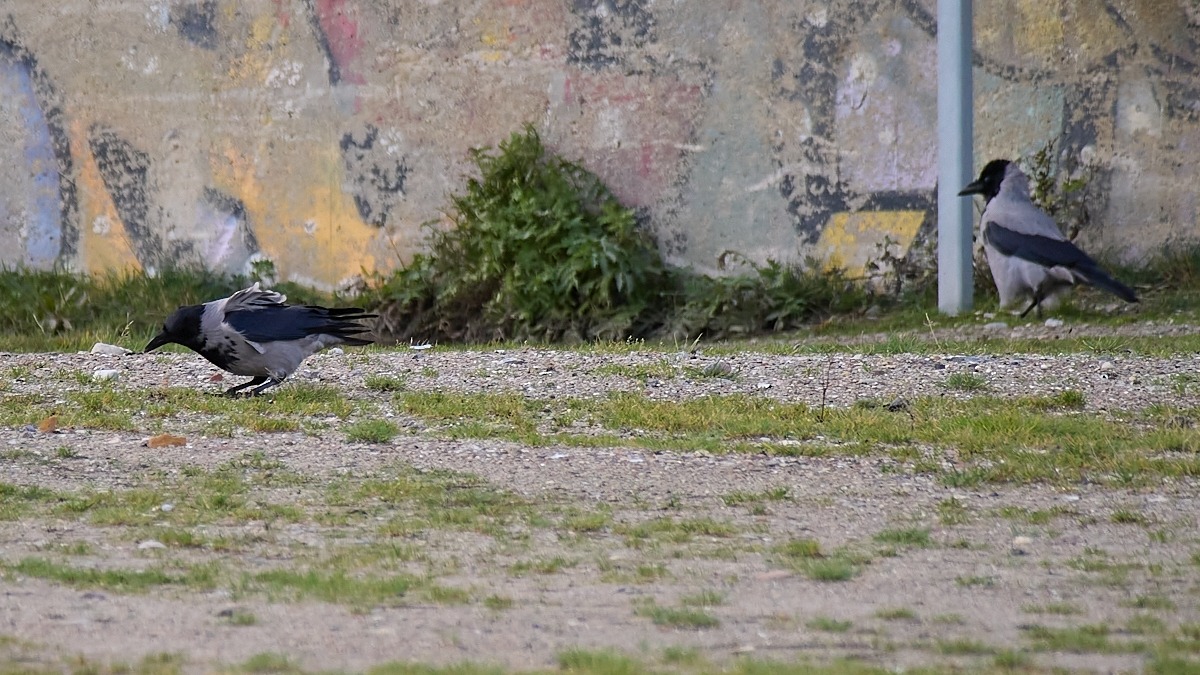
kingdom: Animalia
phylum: Chordata
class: Aves
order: Passeriformes
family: Corvidae
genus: Corvus
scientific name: Corvus cornix
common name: Gråkrage
